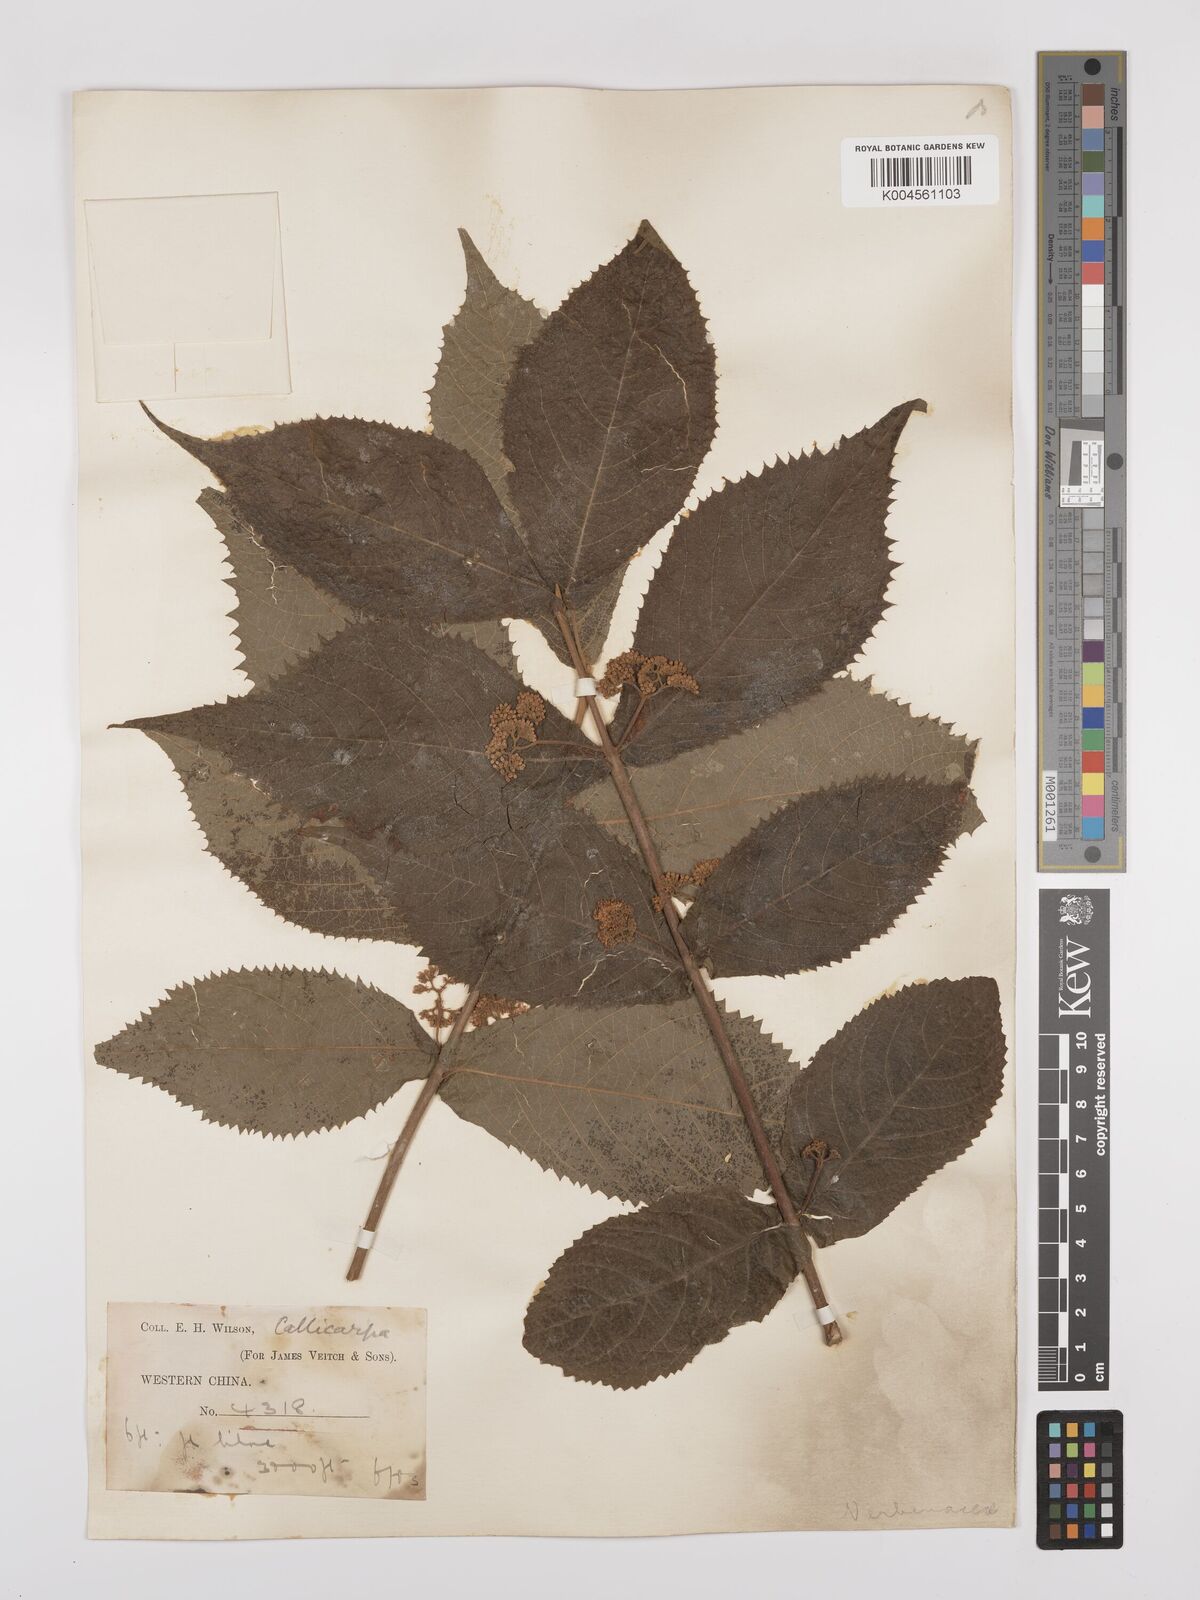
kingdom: Plantae
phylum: Tracheophyta
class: Magnoliopsida
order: Lamiales
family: Lamiaceae
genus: Callicarpa
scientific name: Callicarpa rubella
